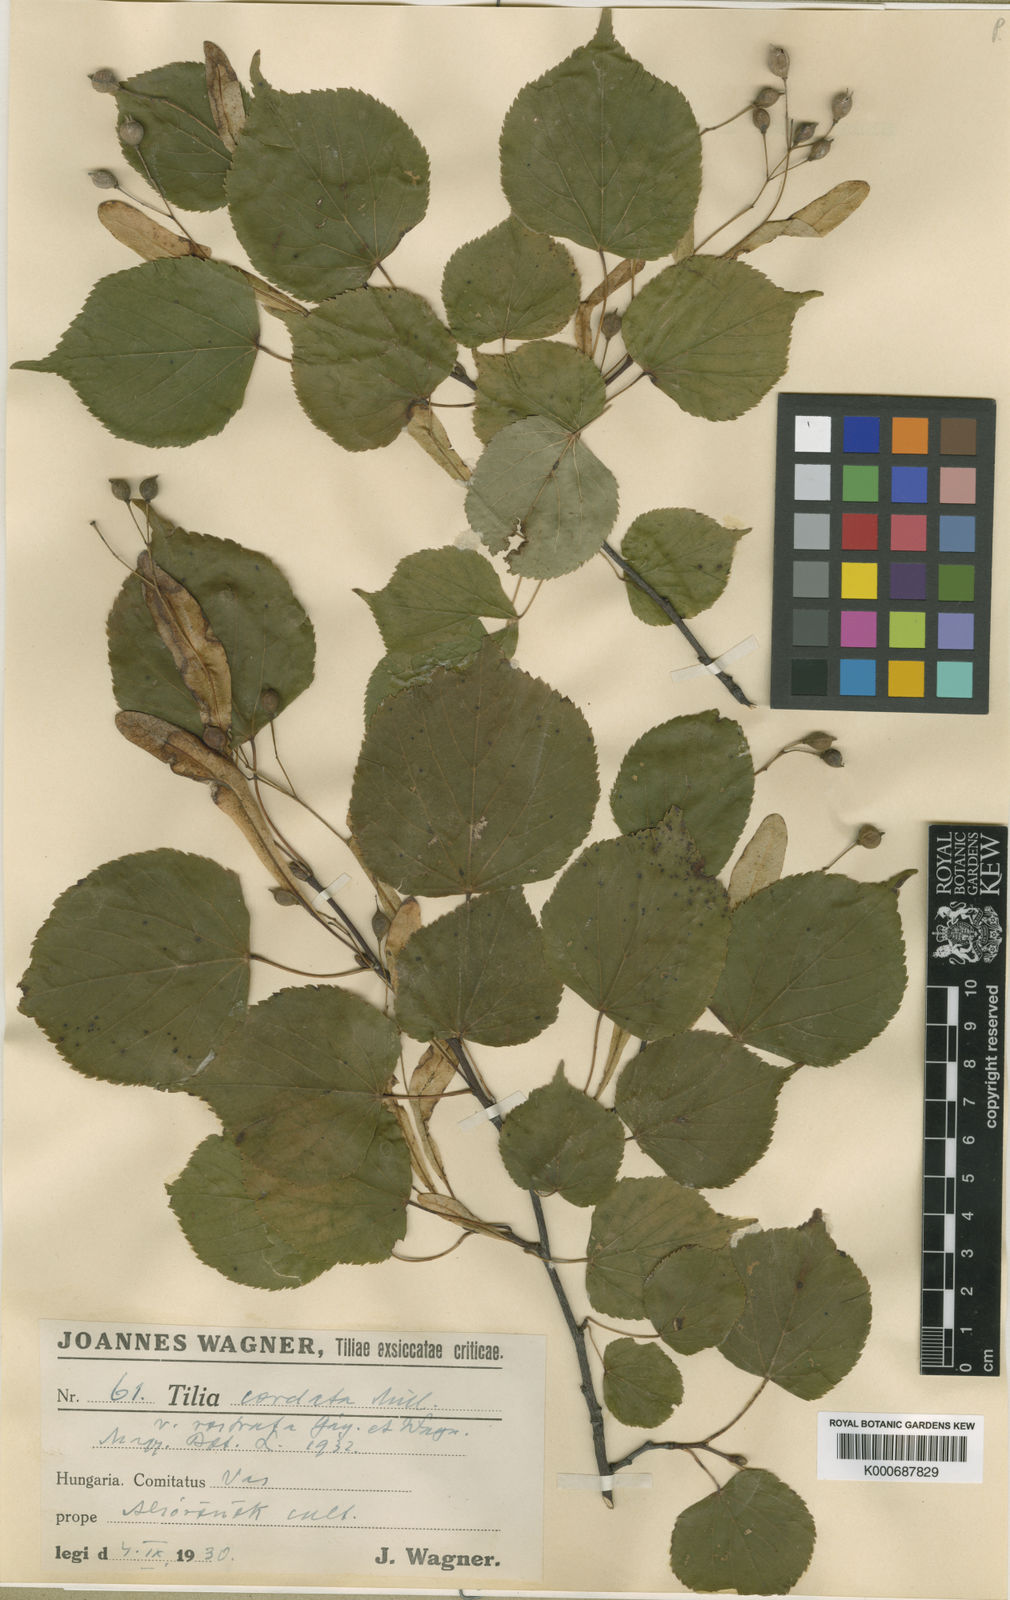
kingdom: Plantae
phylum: Tracheophyta
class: Magnoliopsida
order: Malvales
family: Malvaceae
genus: Tilia
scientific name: Tilia cordata
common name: Small-leaved lime
